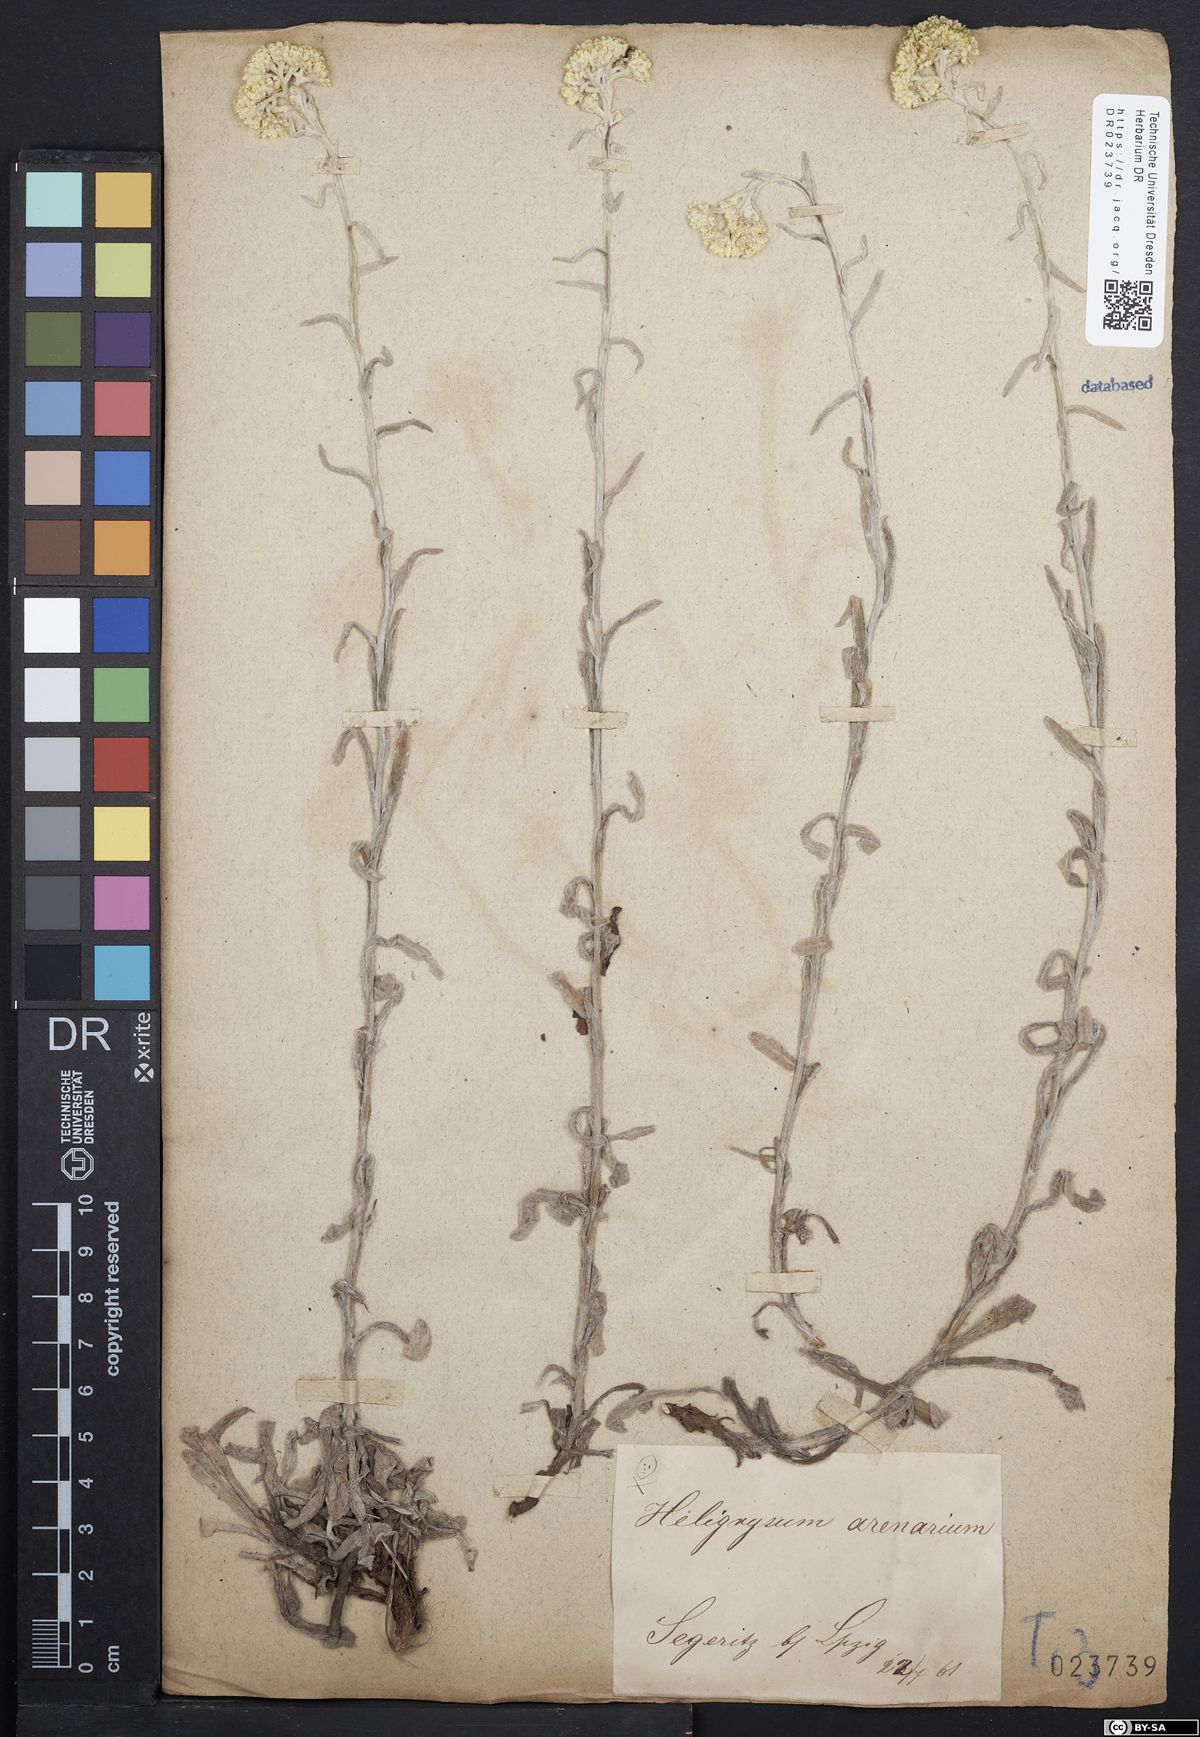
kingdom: Plantae
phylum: Tracheophyta
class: Magnoliopsida
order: Asterales
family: Asteraceae
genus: Helichrysum
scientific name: Helichrysum arenarium
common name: Strawflower
